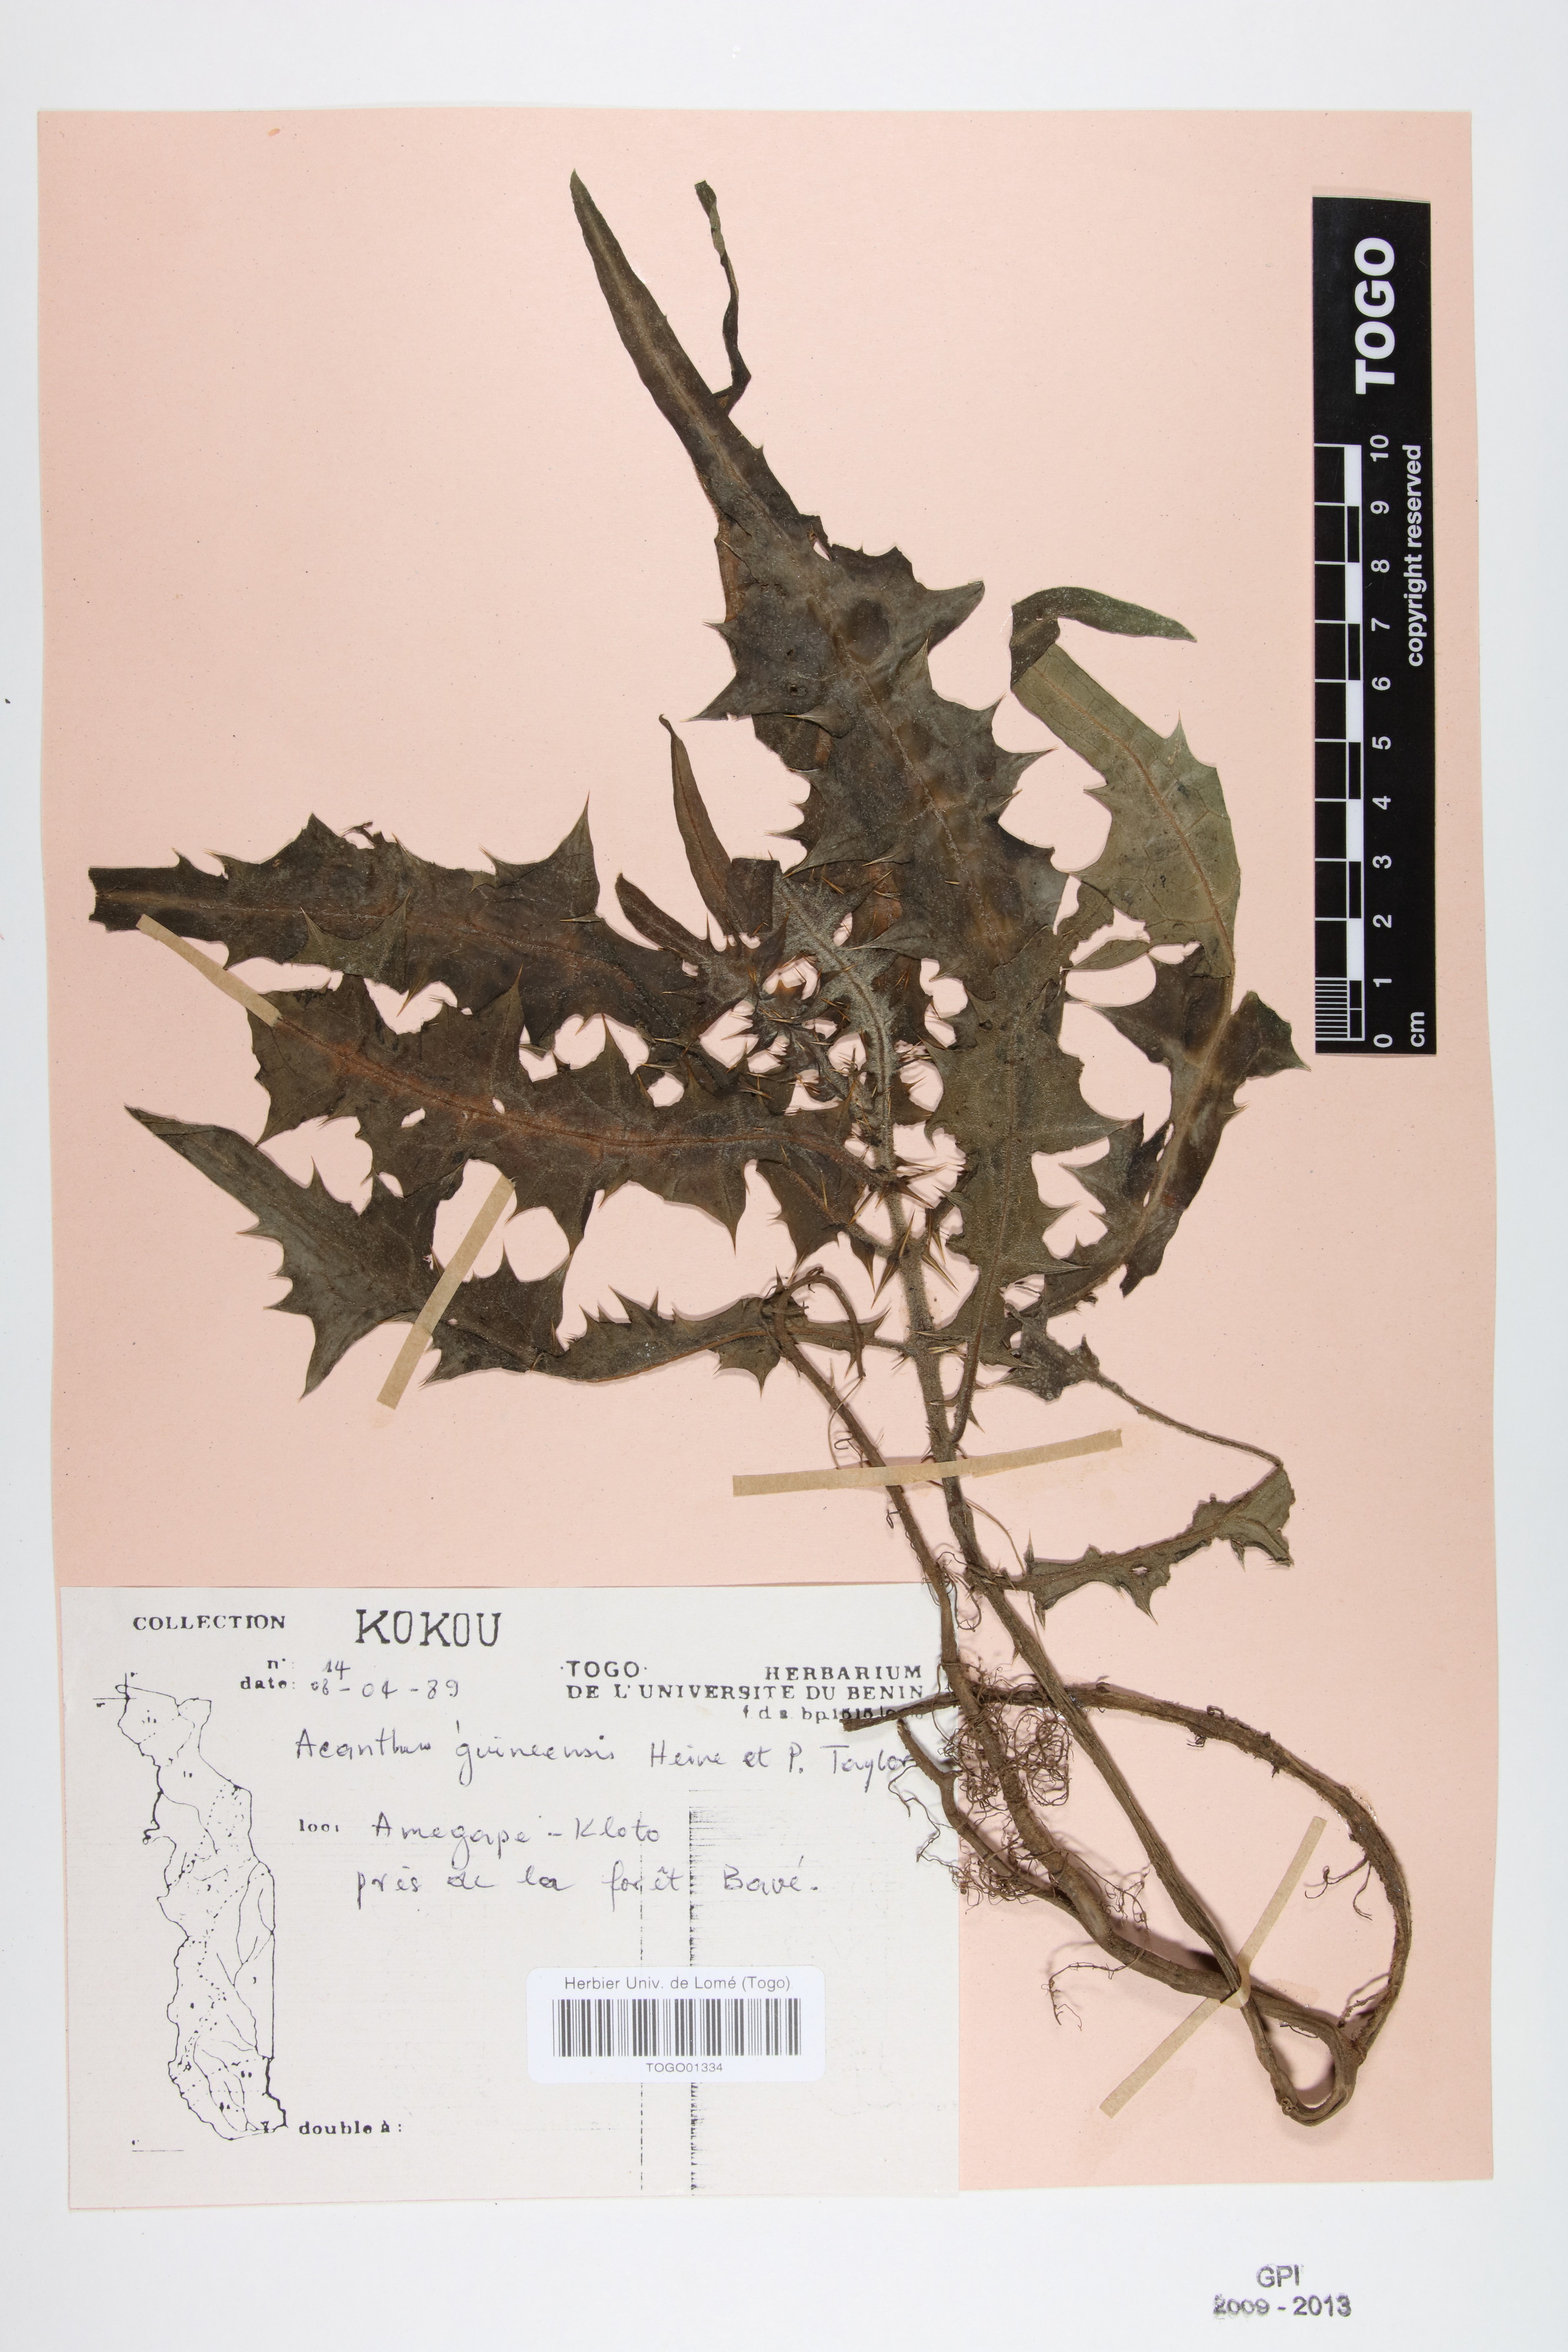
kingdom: Plantae
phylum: Tracheophyta
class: Magnoliopsida
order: Lamiales
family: Acanthaceae
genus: Acanthus
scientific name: Acanthus guineensis
